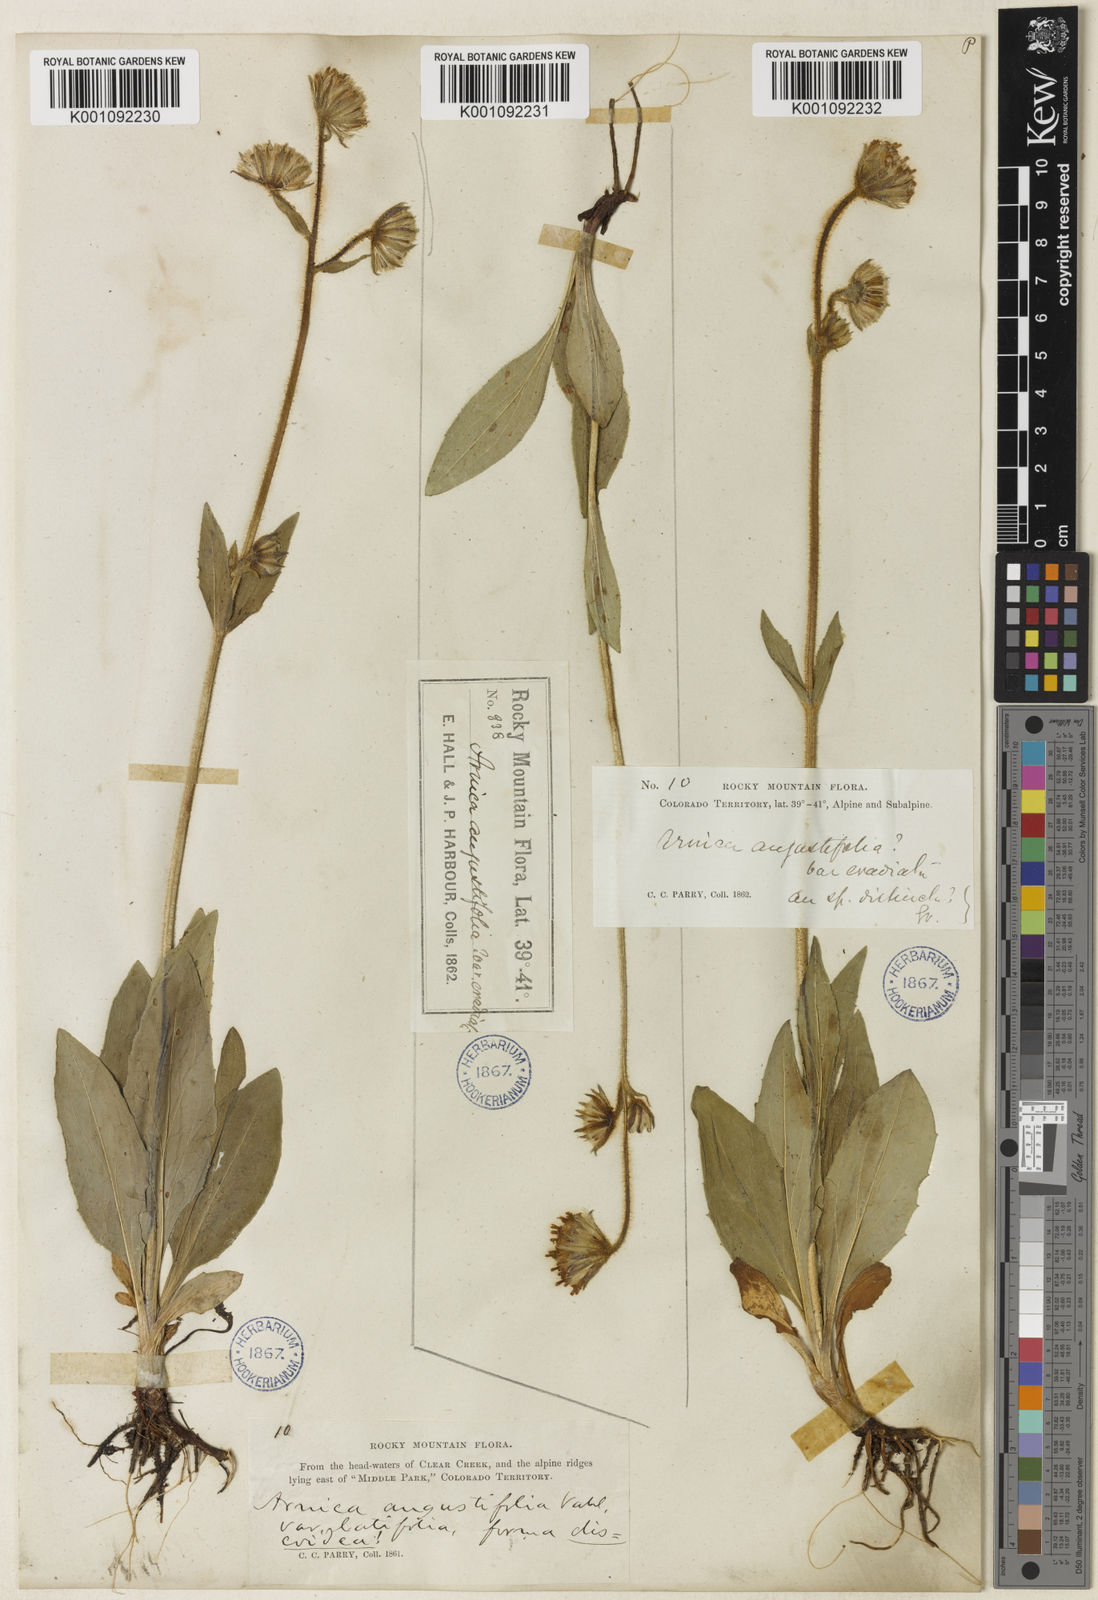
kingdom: Plantae
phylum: Tracheophyta
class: Magnoliopsida
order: Asterales
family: Asteraceae
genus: Arnica
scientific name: Arnica parryi
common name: Parry's arnica
